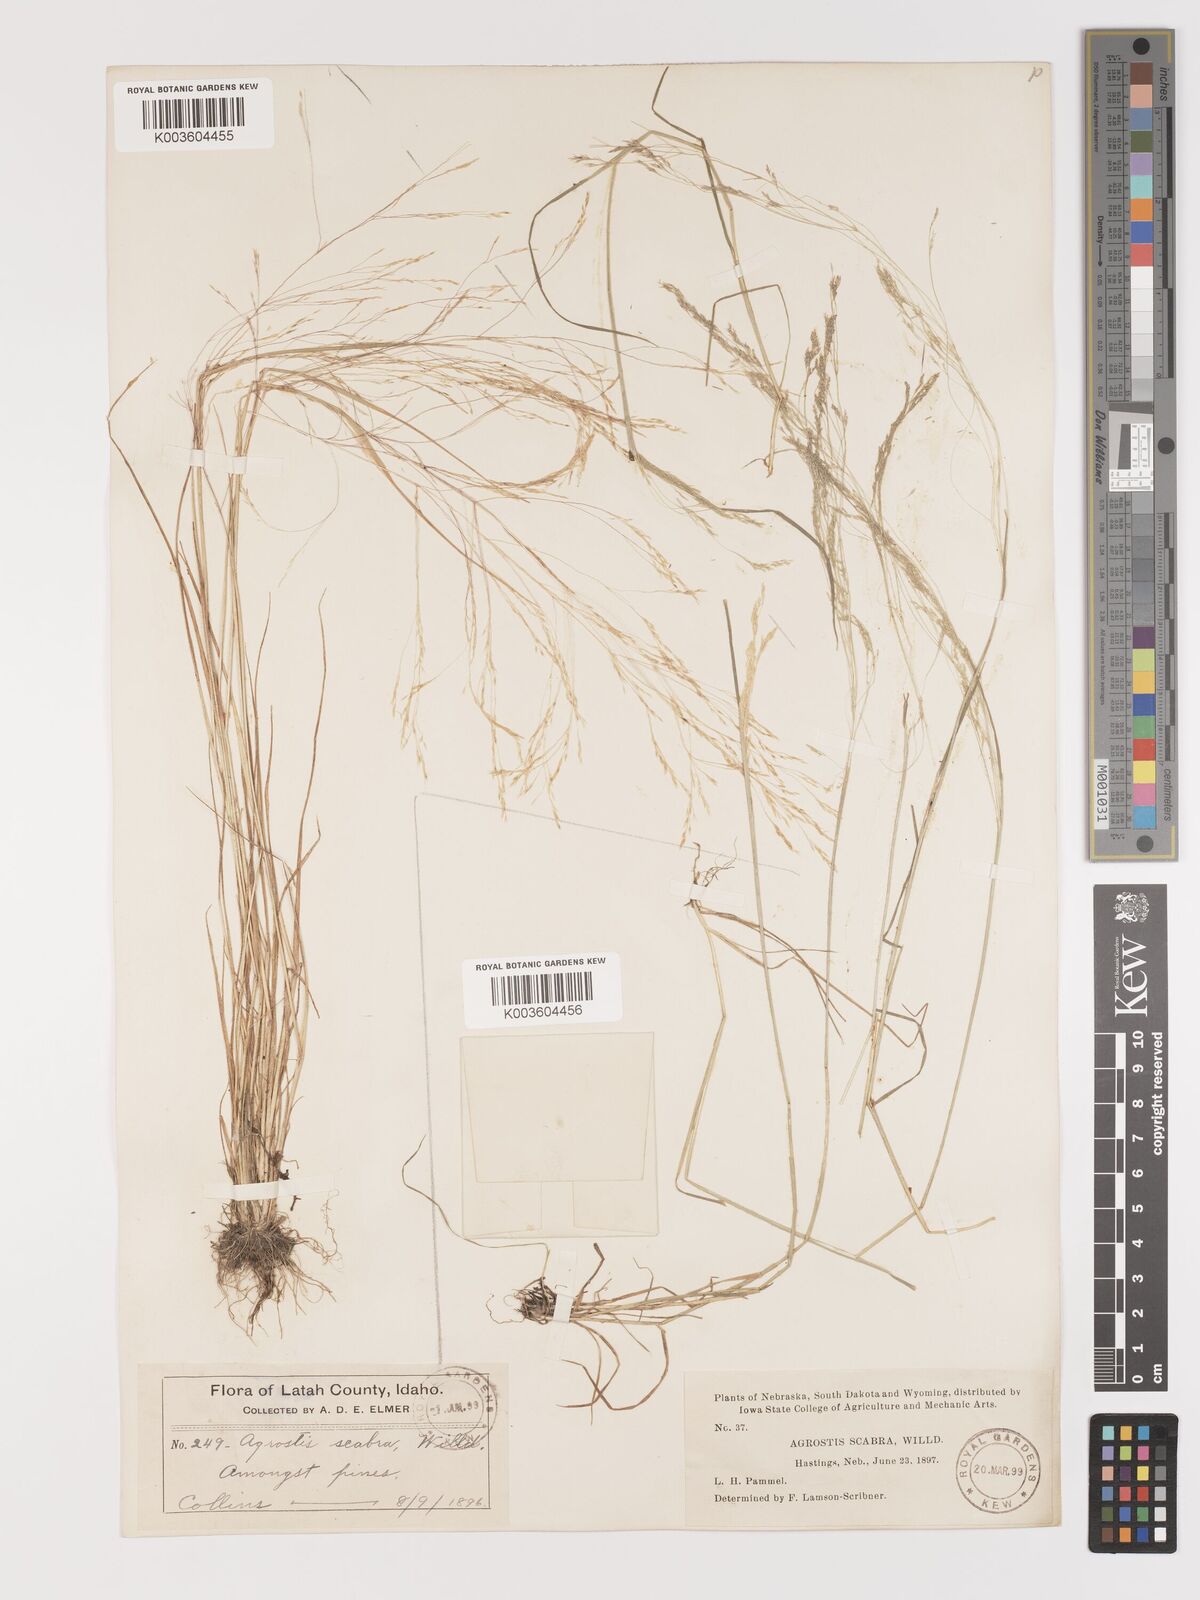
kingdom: Plantae
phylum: Tracheophyta
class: Liliopsida
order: Poales
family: Poaceae
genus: Agrostis
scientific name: Agrostis hyemalis
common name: Small bent
